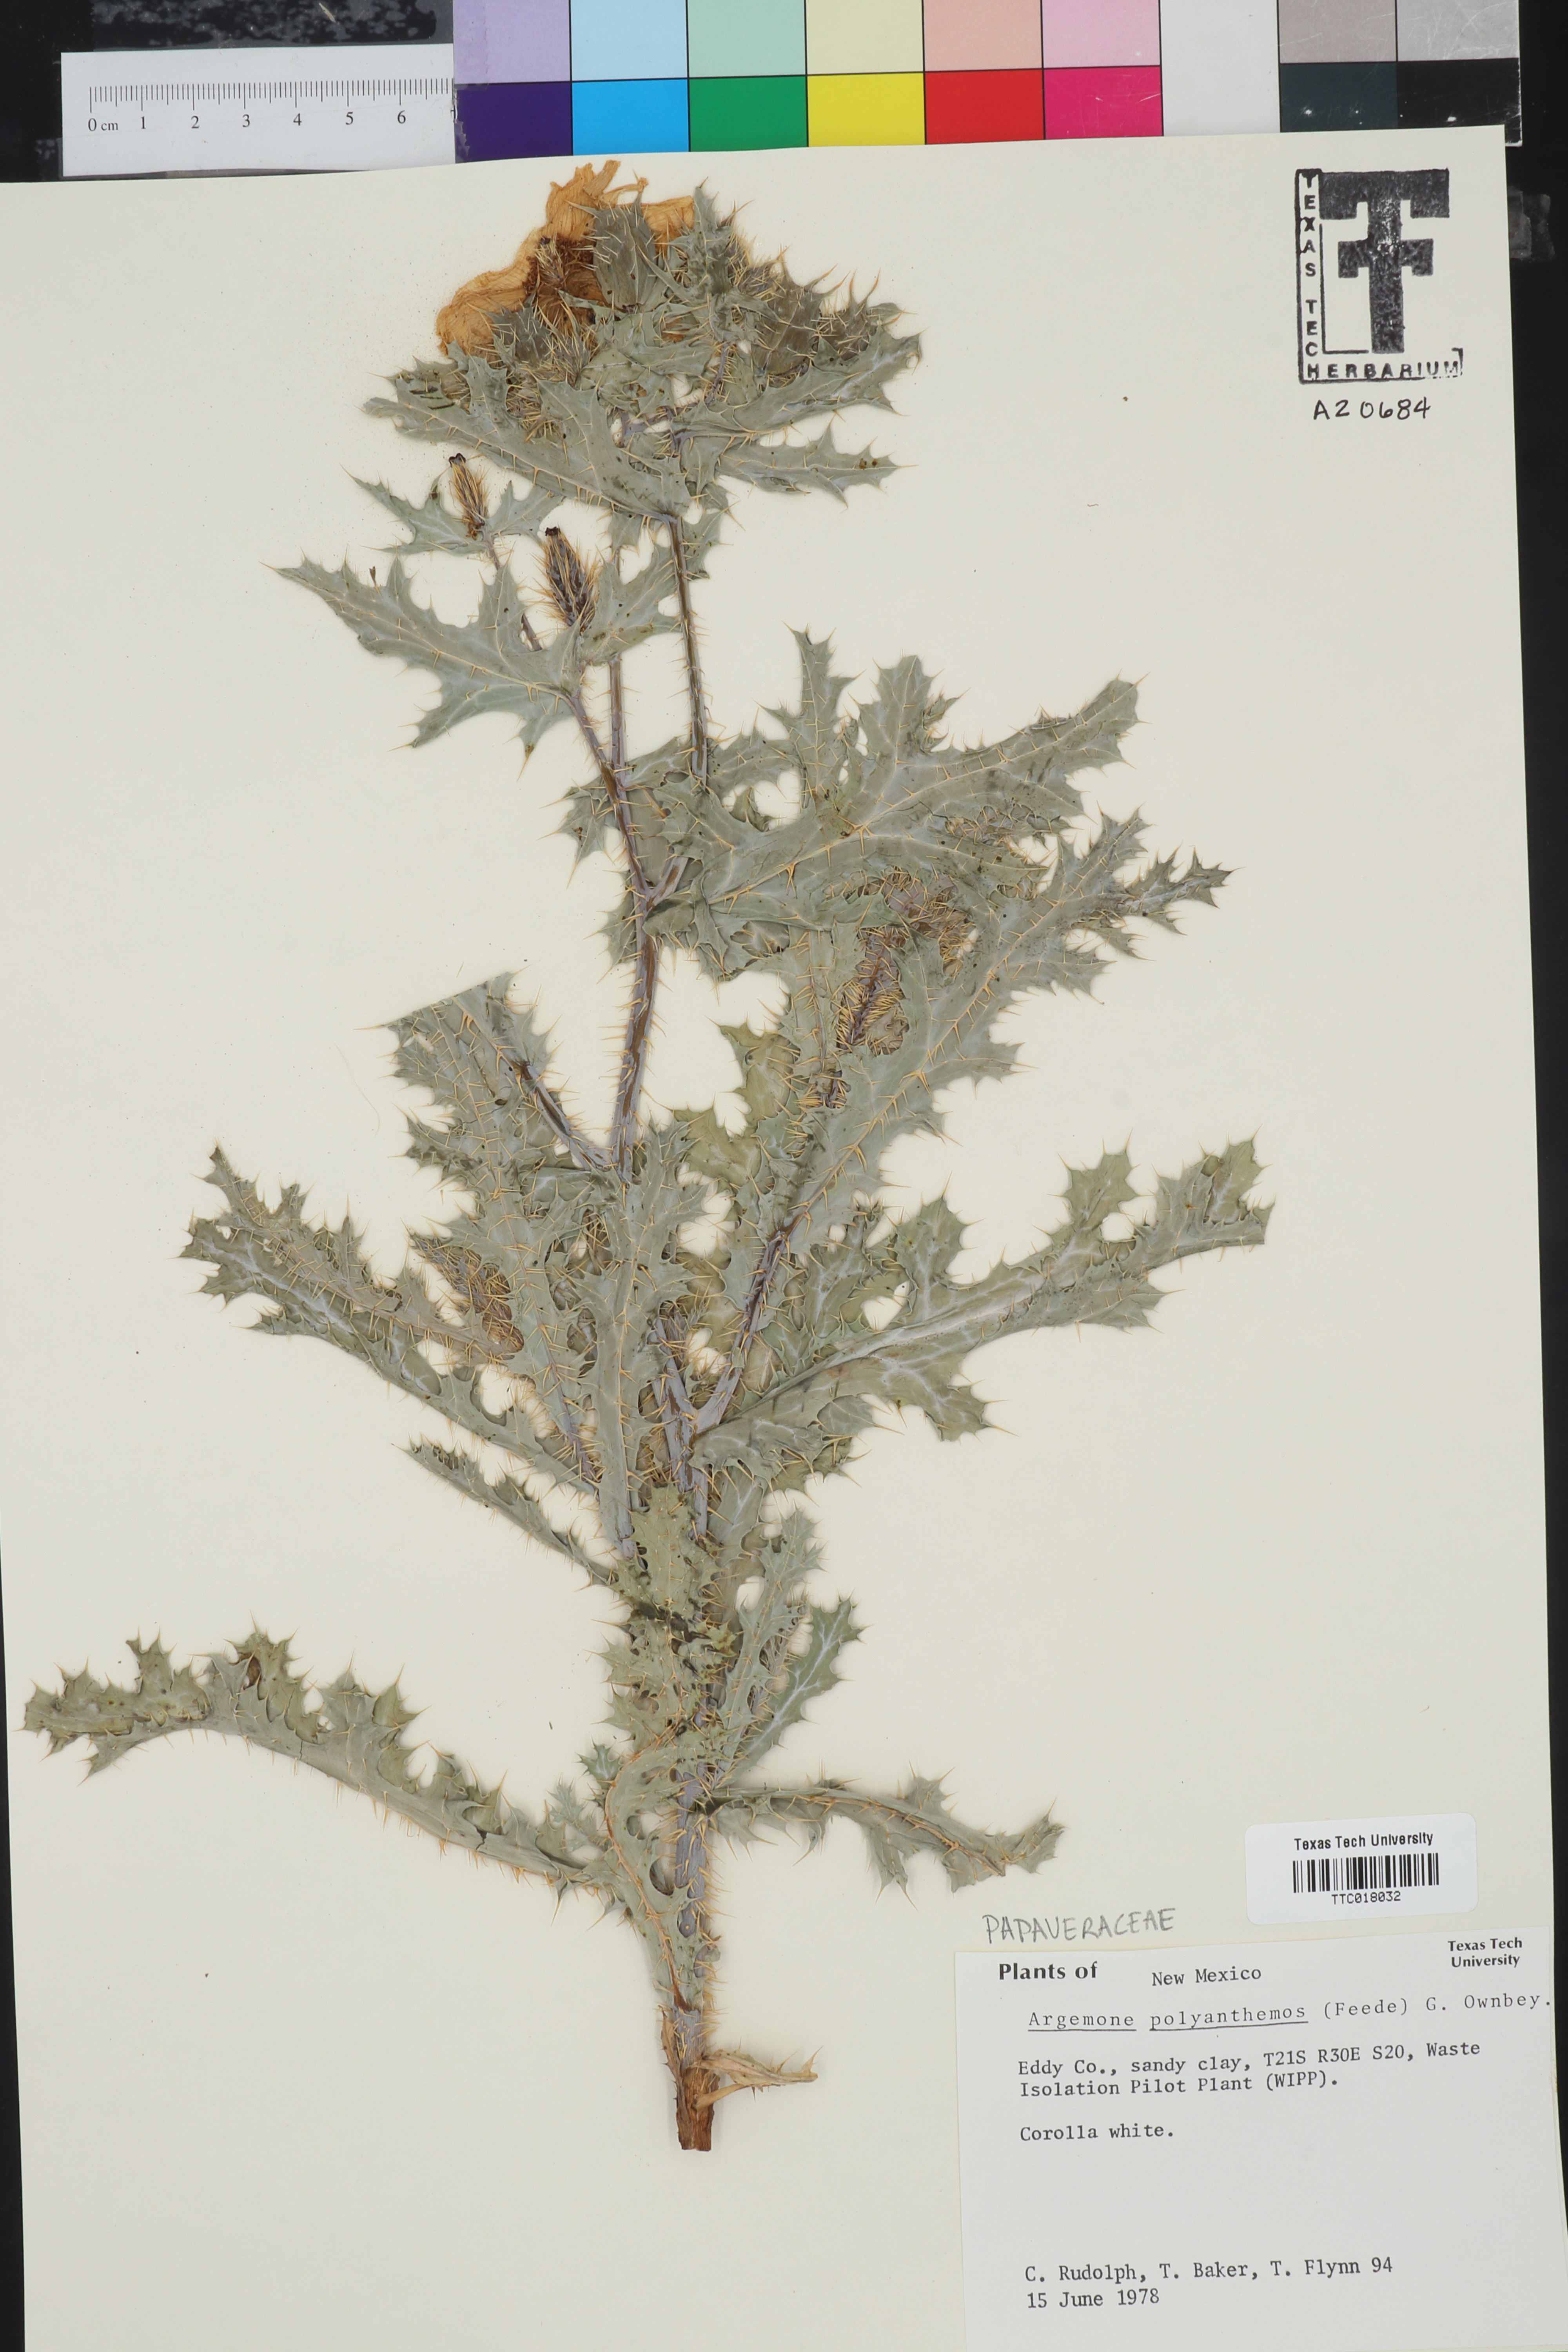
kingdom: Plantae
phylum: Tracheophyta
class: Magnoliopsida
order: Ranunculales
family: Papaveraceae
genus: Argemone
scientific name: Argemone polyanthemos
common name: Plains prickly-poppy
